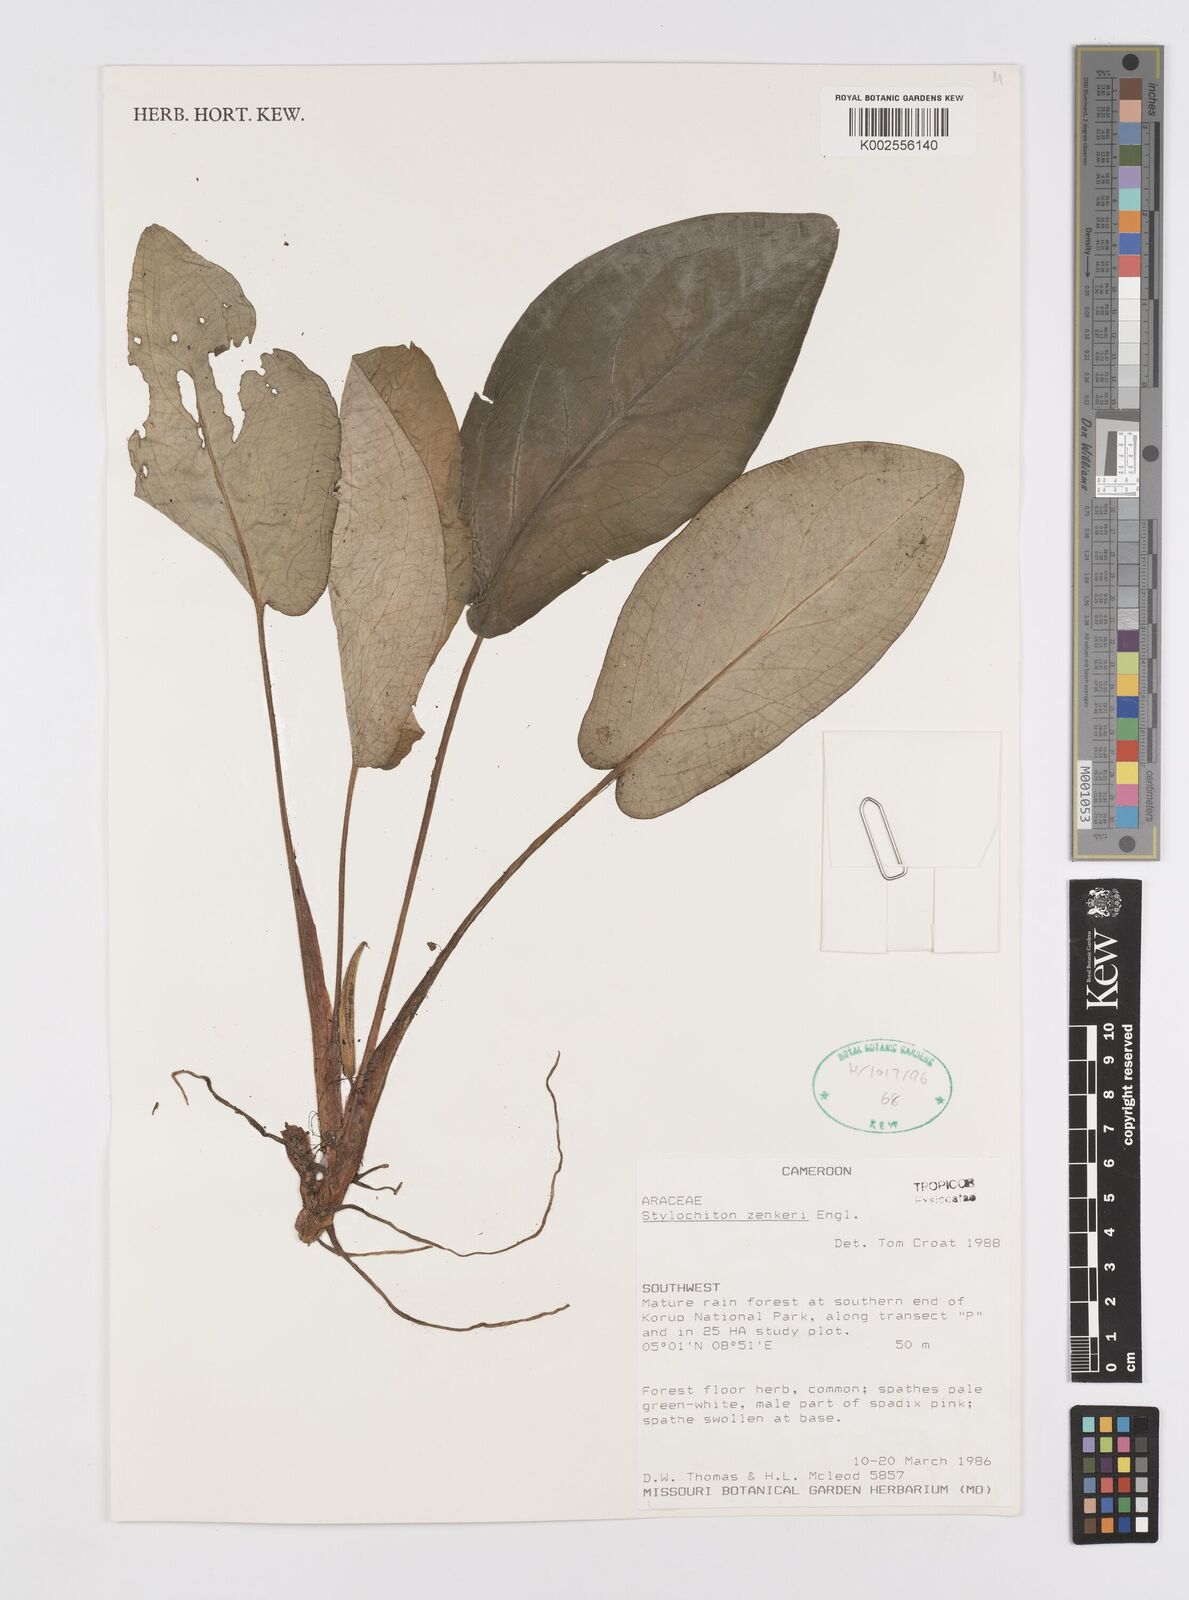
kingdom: Plantae
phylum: Tracheophyta
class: Liliopsida
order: Alismatales
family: Araceae
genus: Stylochaeton
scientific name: Stylochaeton zenkeri
